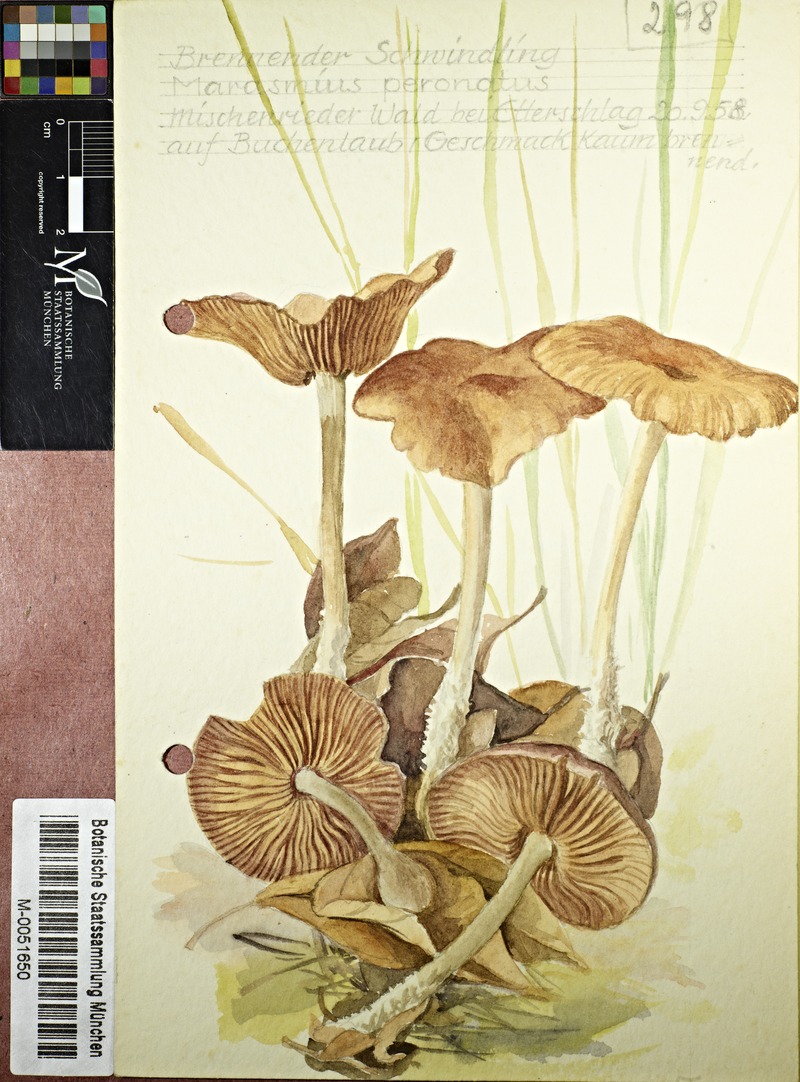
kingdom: Fungi
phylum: Basidiomycota
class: Agaricomycetes
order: Agaricales
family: Omphalotaceae
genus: Collybiopsis
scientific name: Collybiopsis peronata
